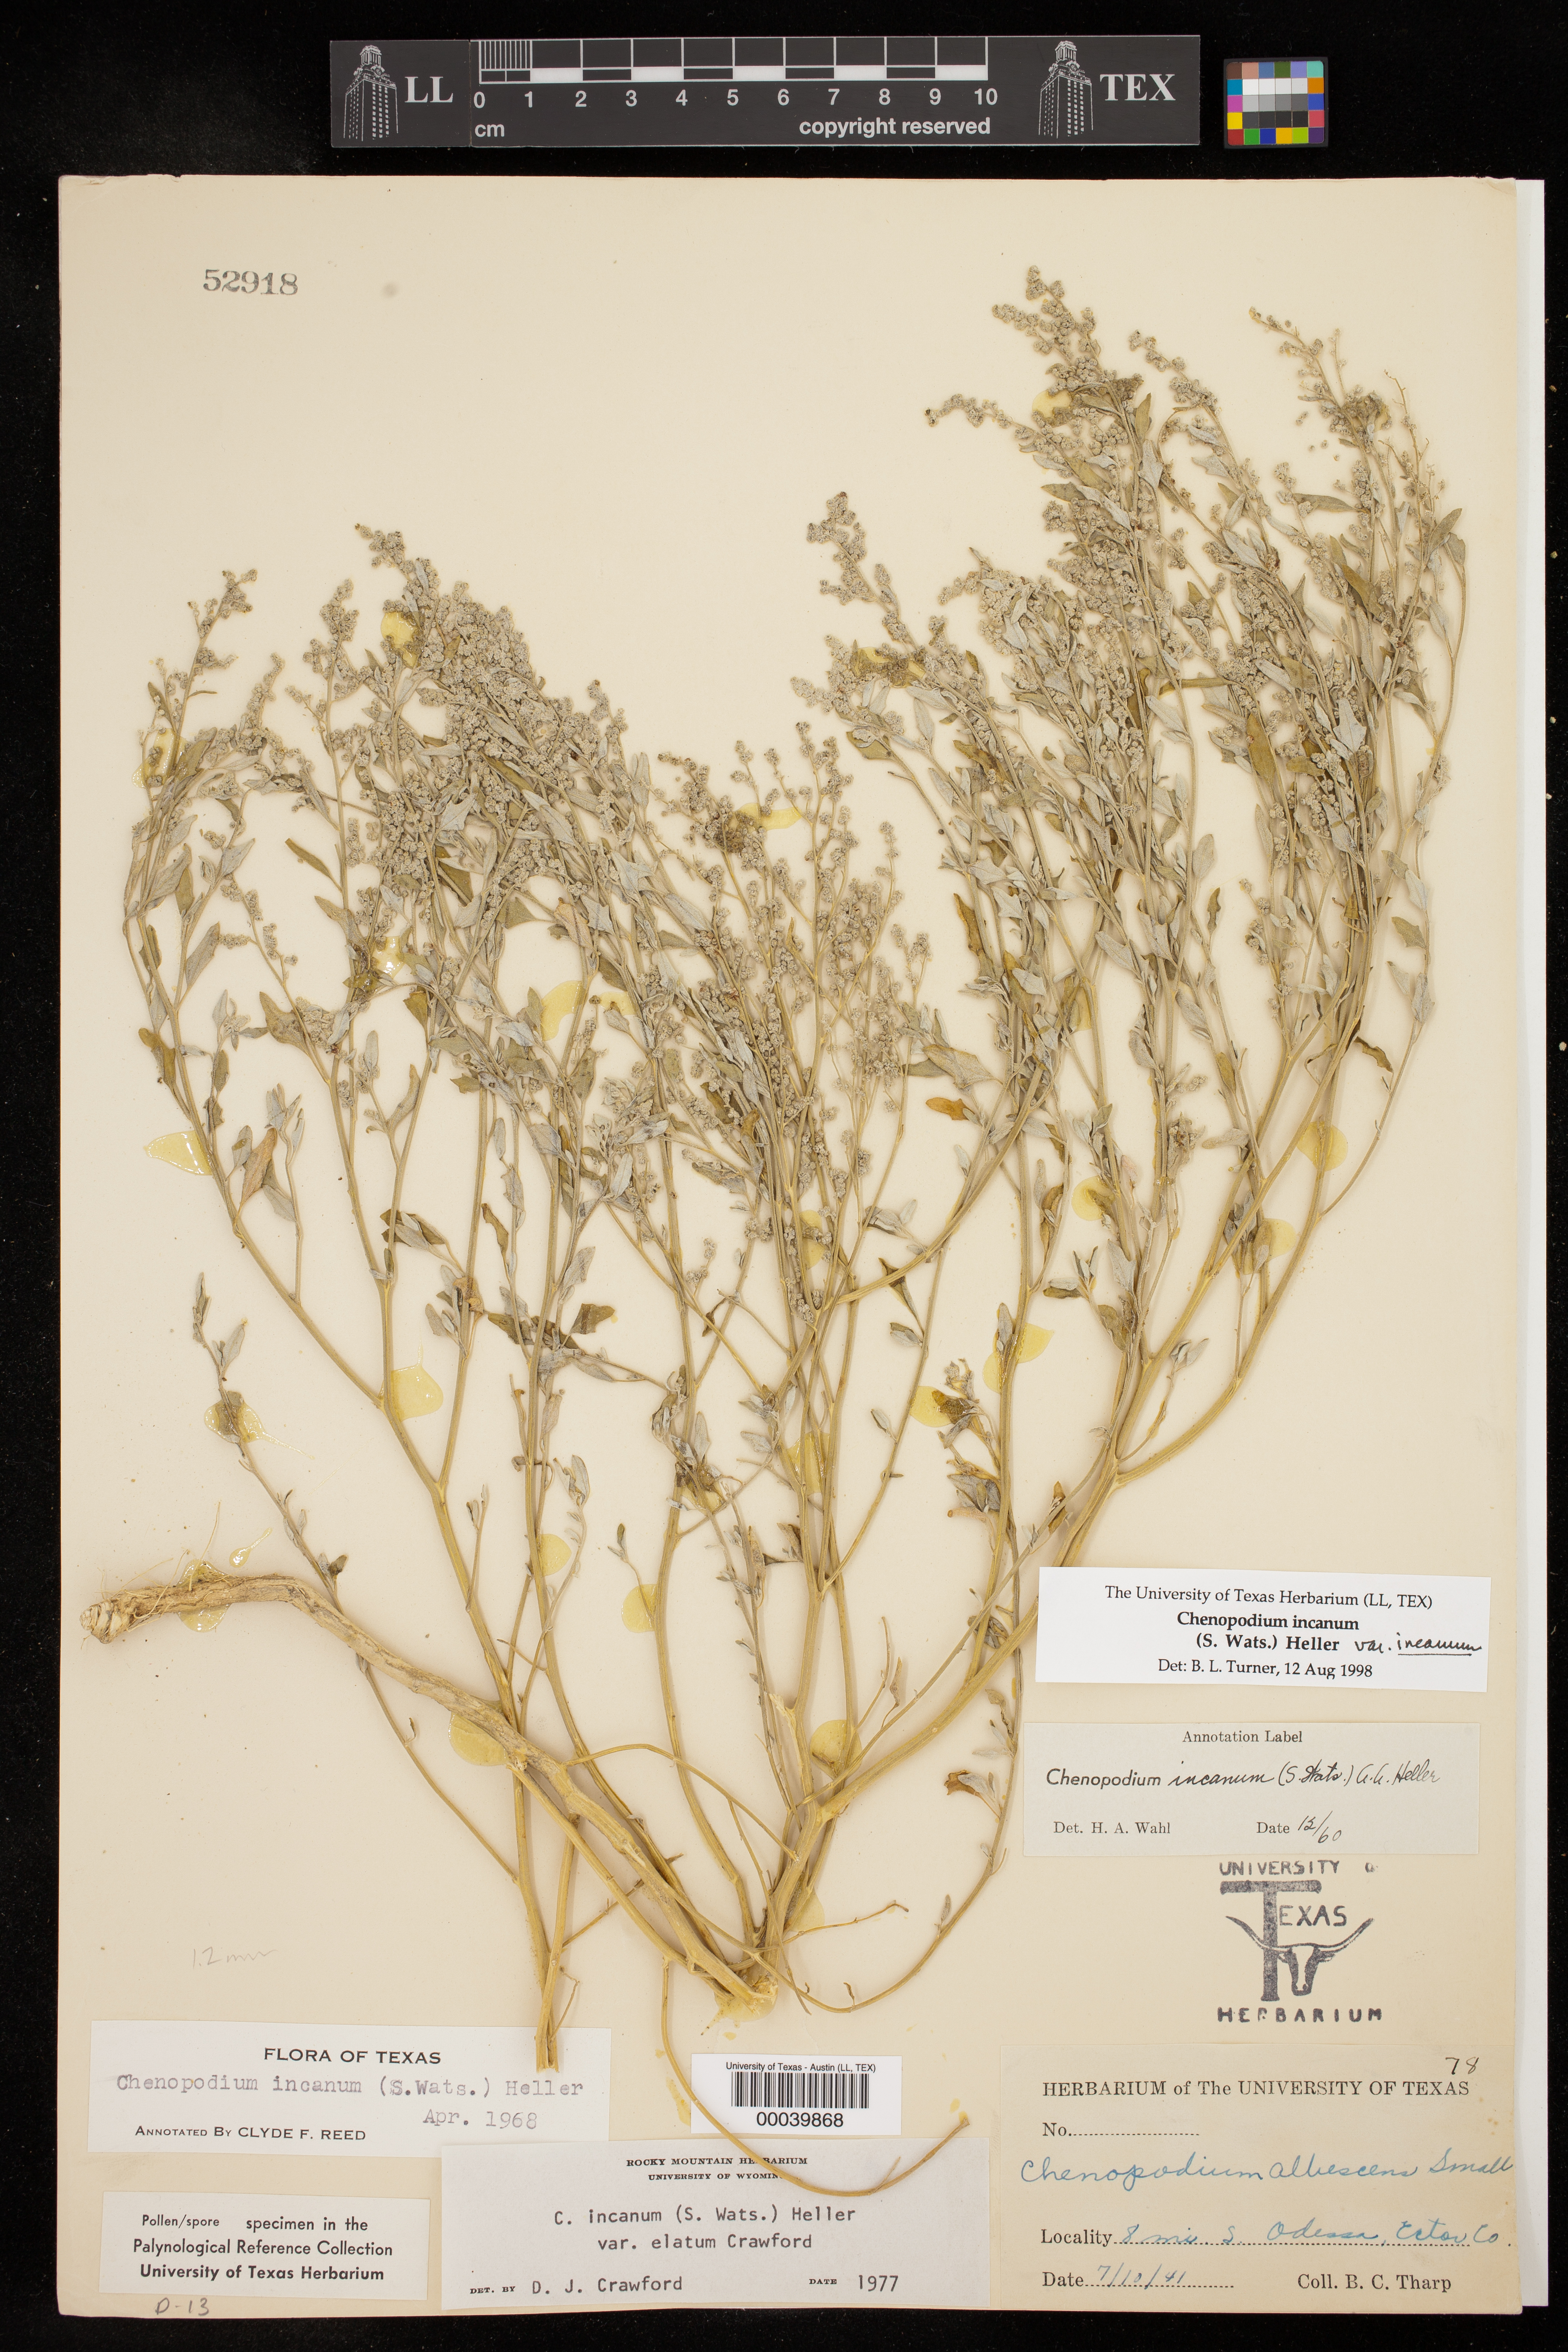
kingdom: Plantae
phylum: Tracheophyta
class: Magnoliopsida
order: Caryophyllales
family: Amaranthaceae
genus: Chenopodium
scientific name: Chenopodium incanum
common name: Hoary goosefoot
